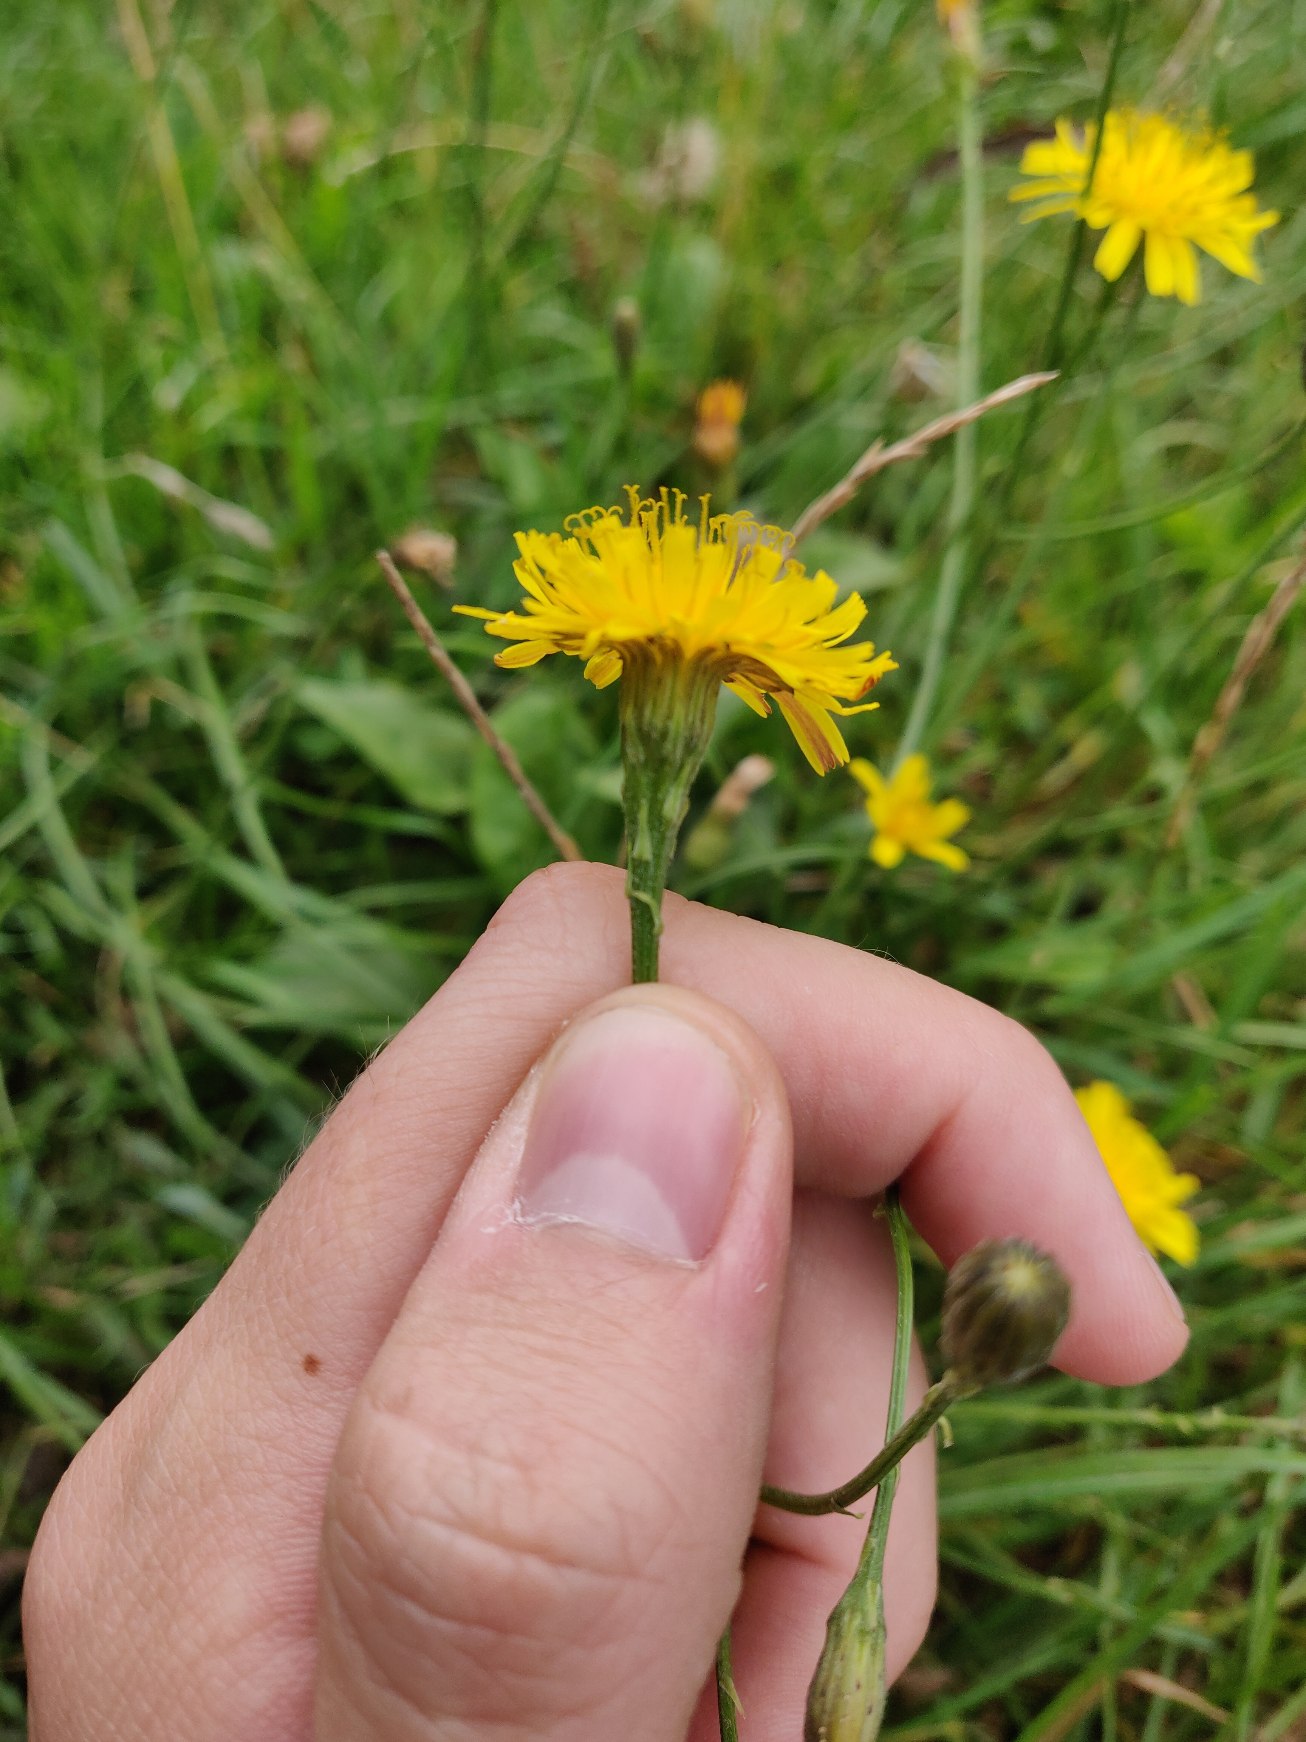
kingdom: Plantae
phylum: Tracheophyta
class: Magnoliopsida
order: Asterales
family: Asteraceae
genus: Scorzoneroides
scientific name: Scorzoneroides autumnalis
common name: Høst-borst
